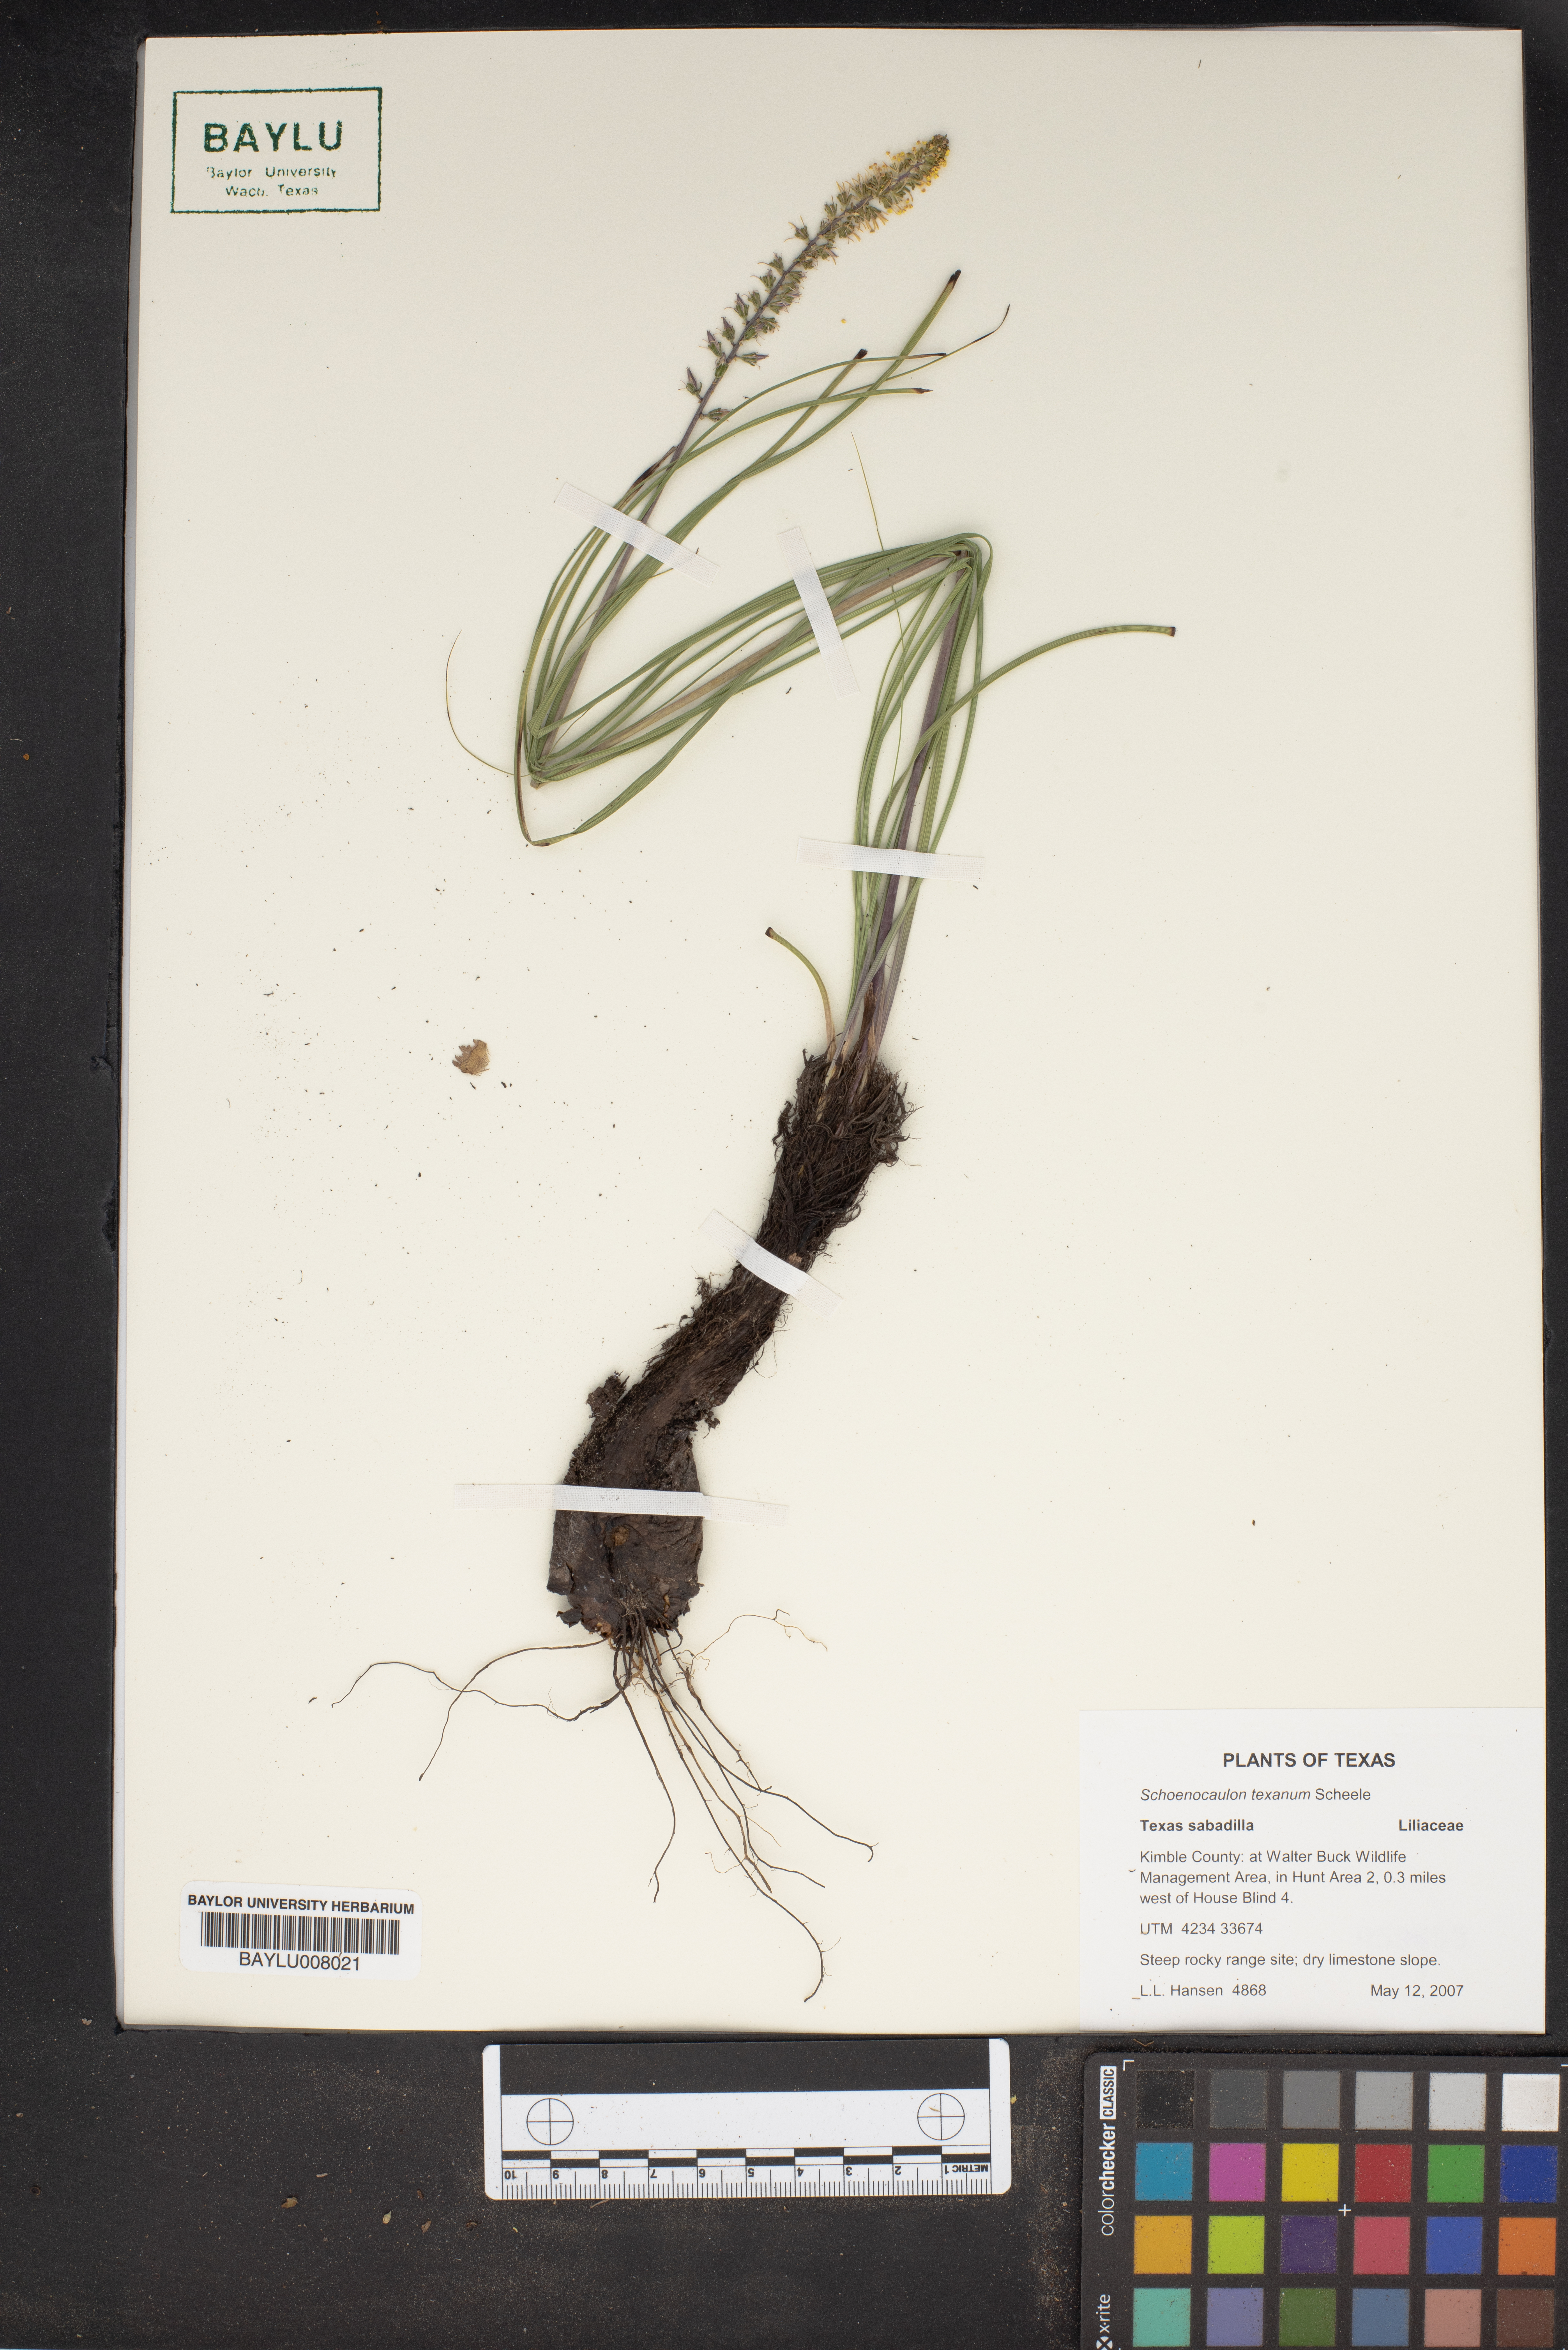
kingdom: Plantae
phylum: Tracheophyta
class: Liliopsida
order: Liliales
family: Melanthiaceae
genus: Schoenocaulon
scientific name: Schoenocaulon texanum
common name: Texas feather-shank
